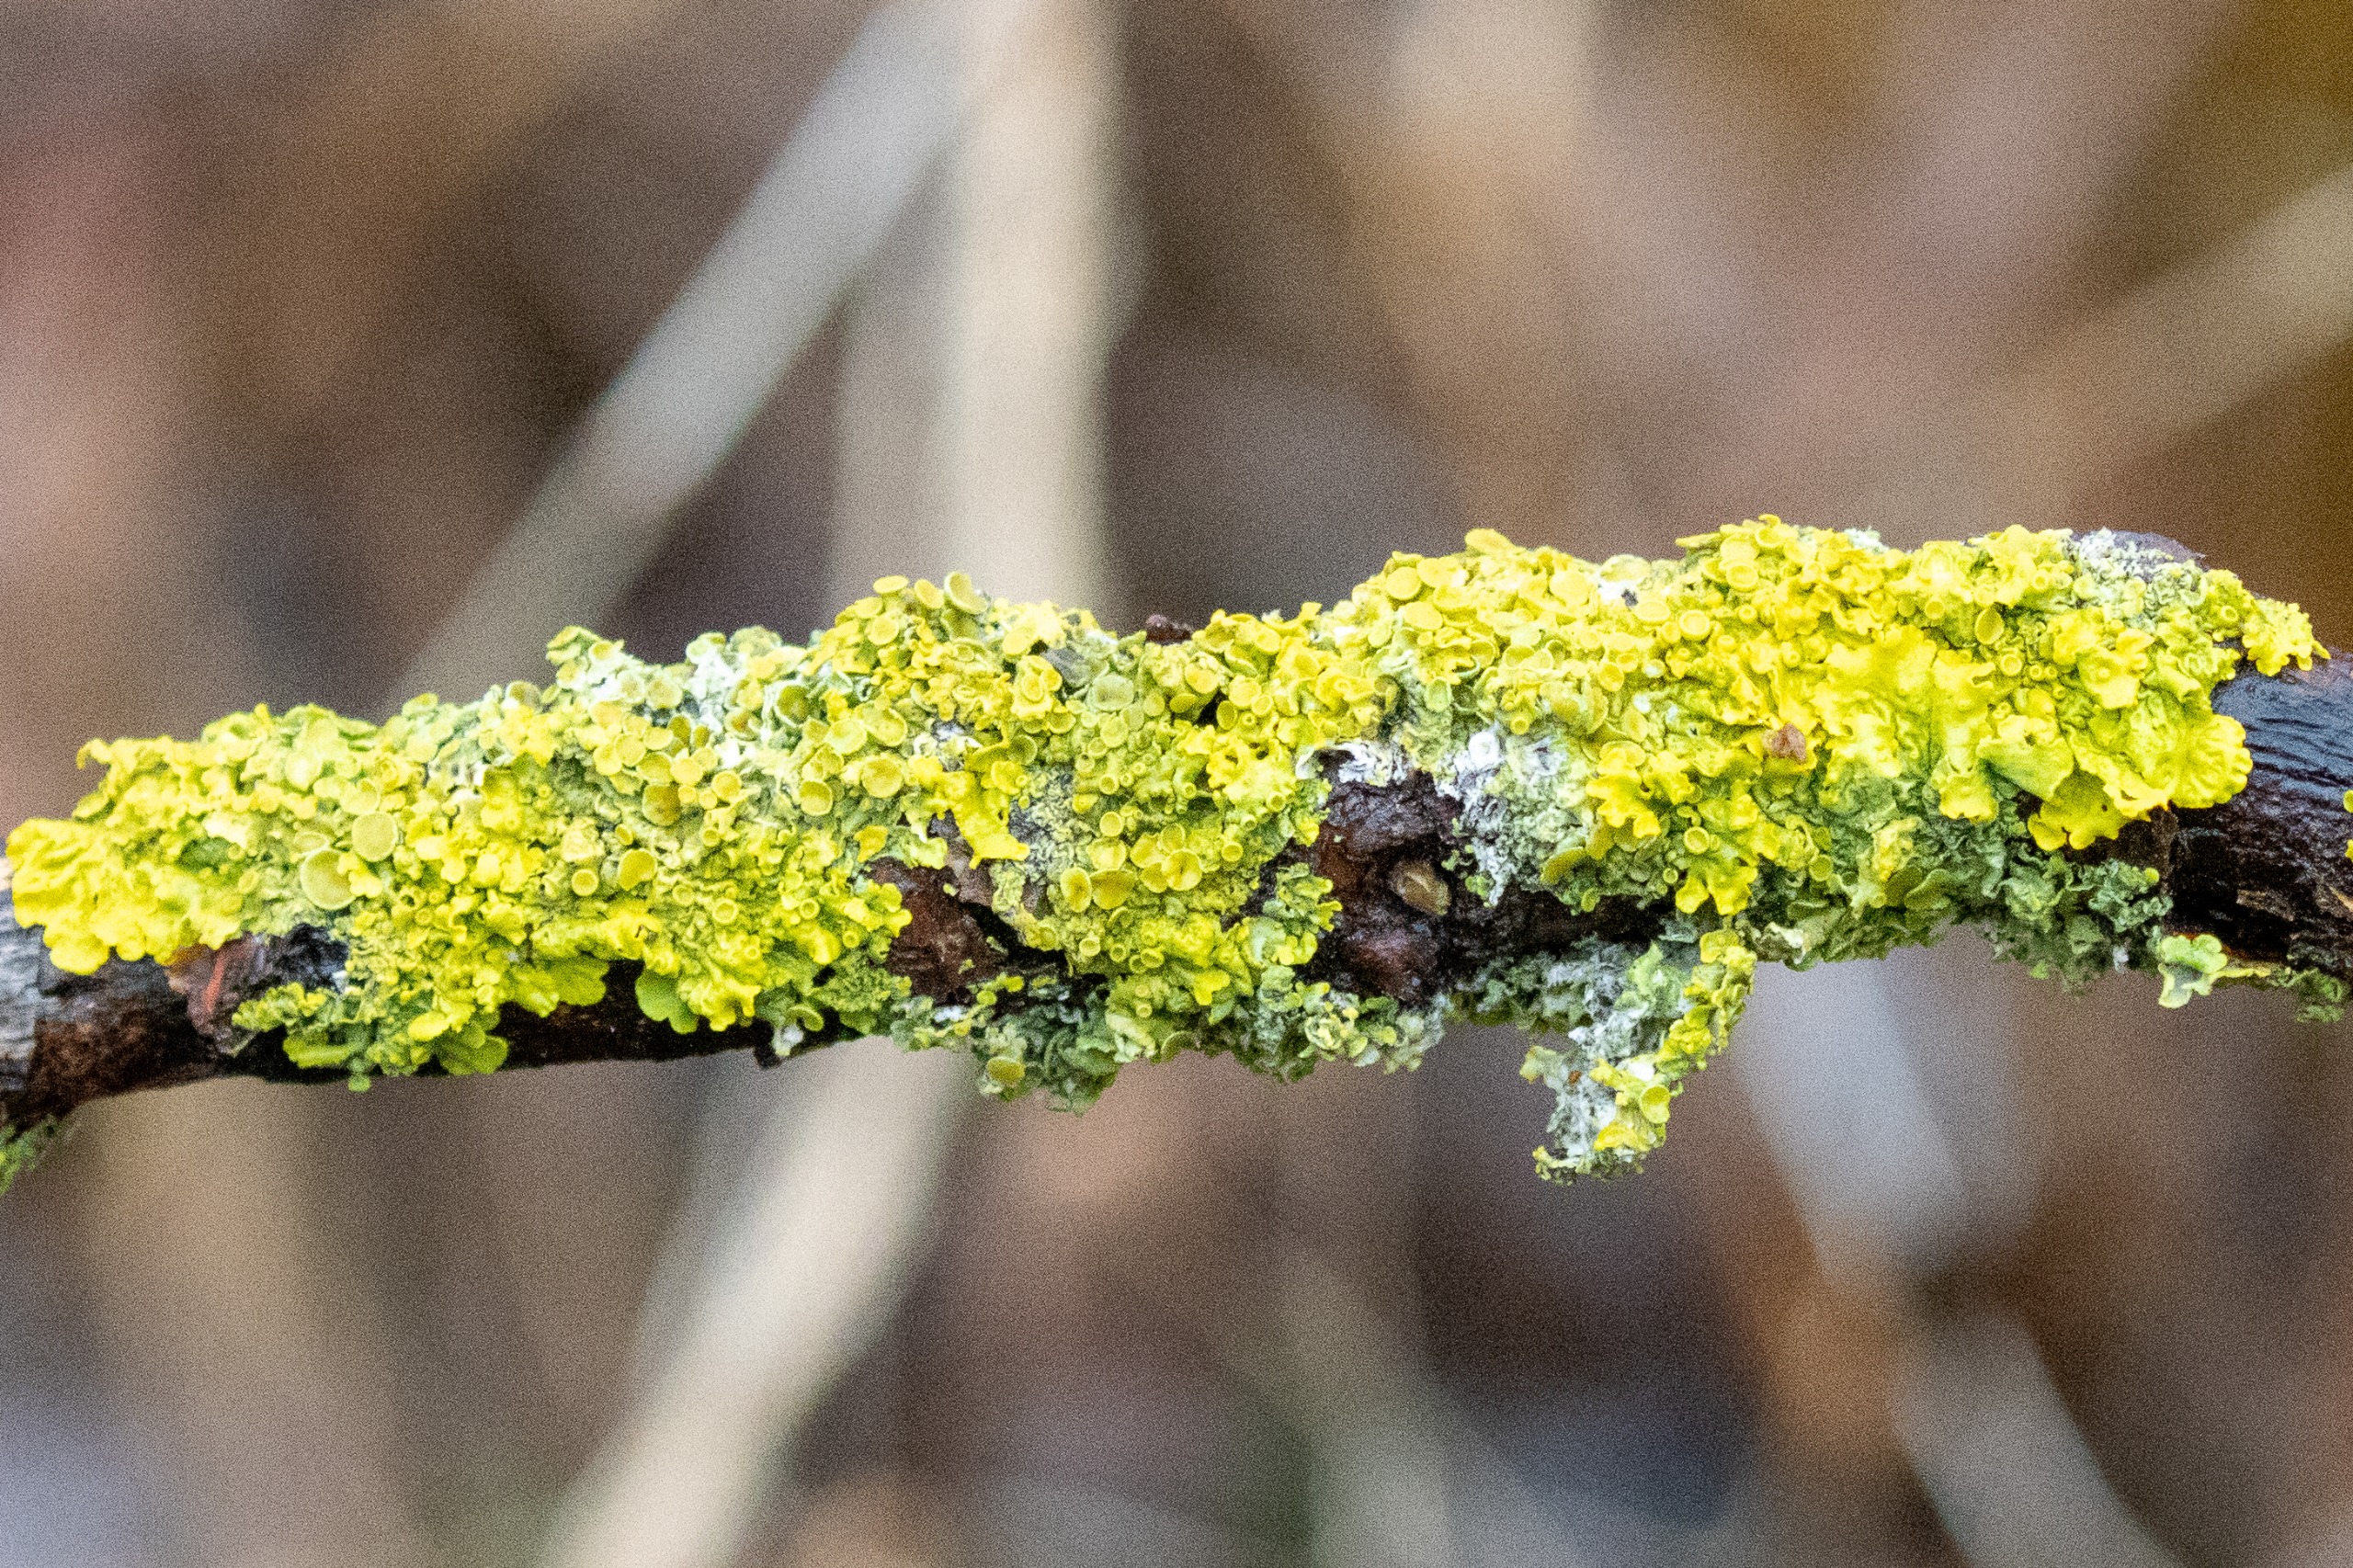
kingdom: Fungi
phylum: Ascomycota
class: Lecanoromycetes
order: Teloschistales
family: Teloschistaceae
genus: Xanthoria
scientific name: Xanthoria parietina
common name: Almindelig væggelav
